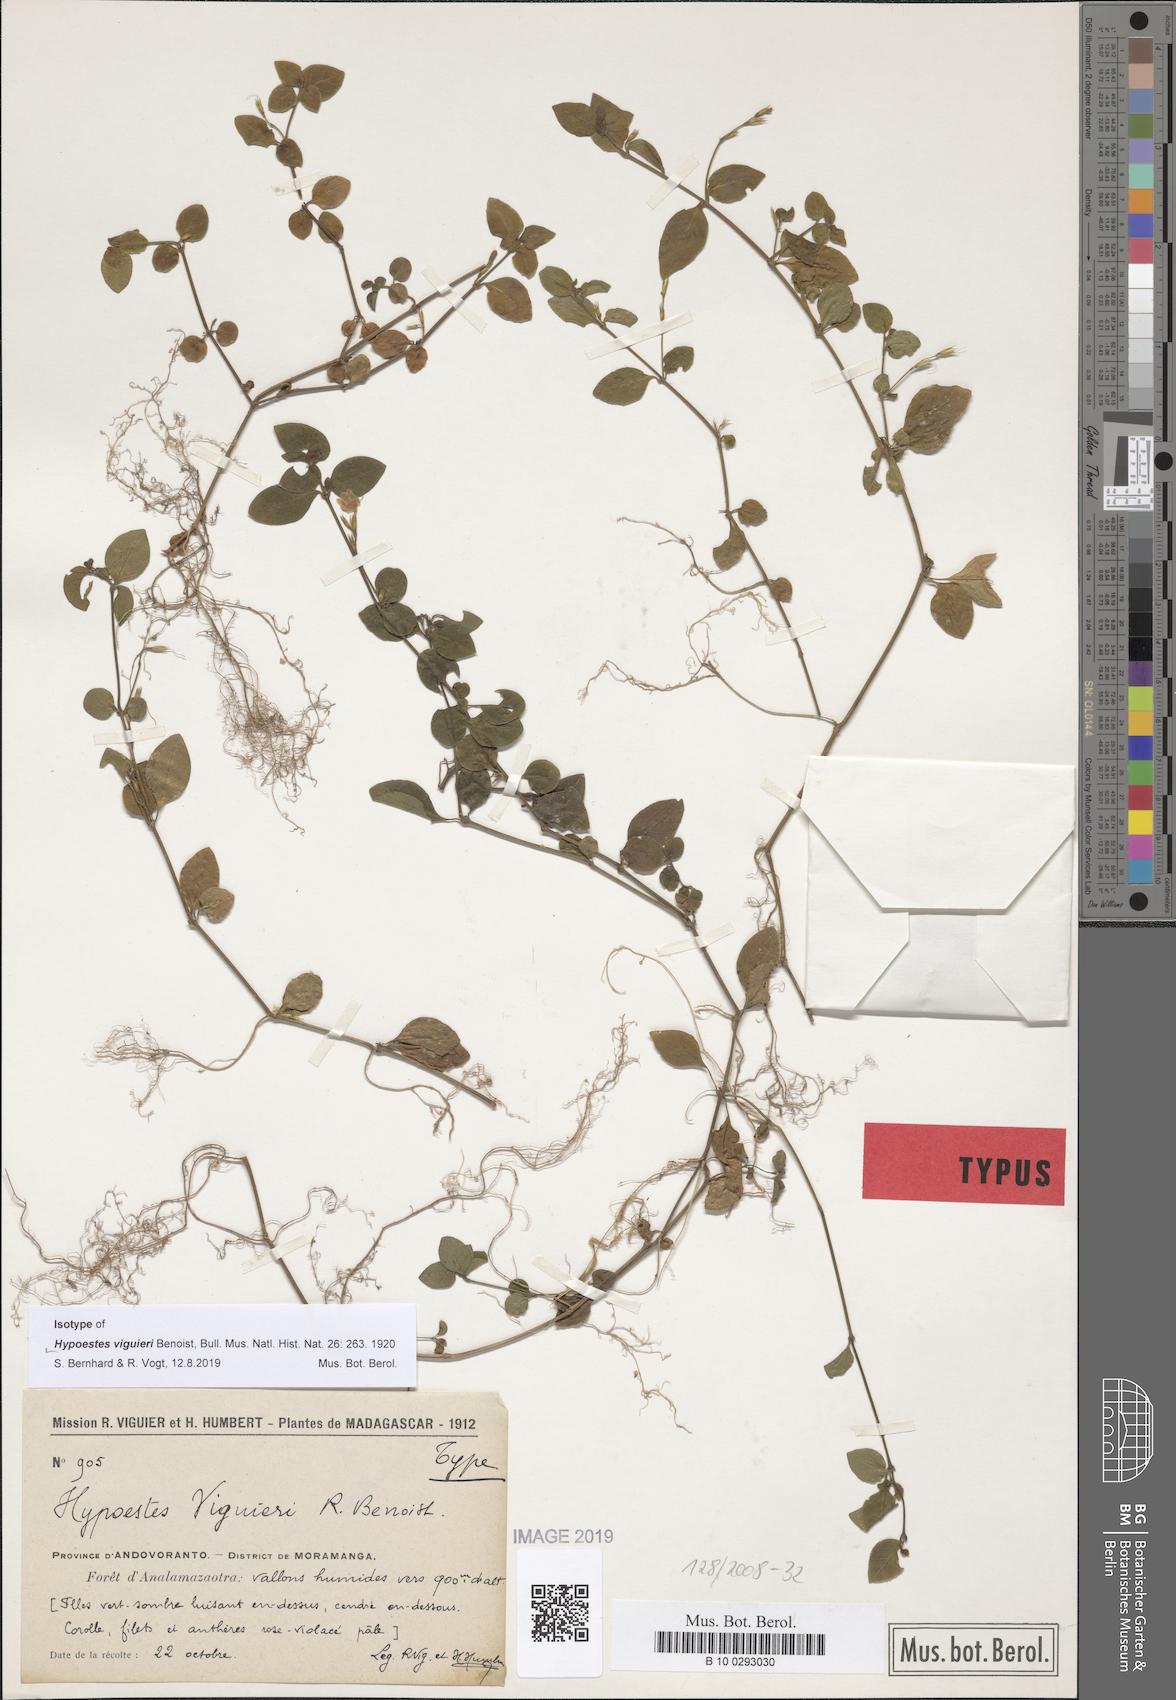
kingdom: Plantae
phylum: Tracheophyta
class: Magnoliopsida
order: Lamiales
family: Acanthaceae
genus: Hypoestes
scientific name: Hypoestes viguieri
